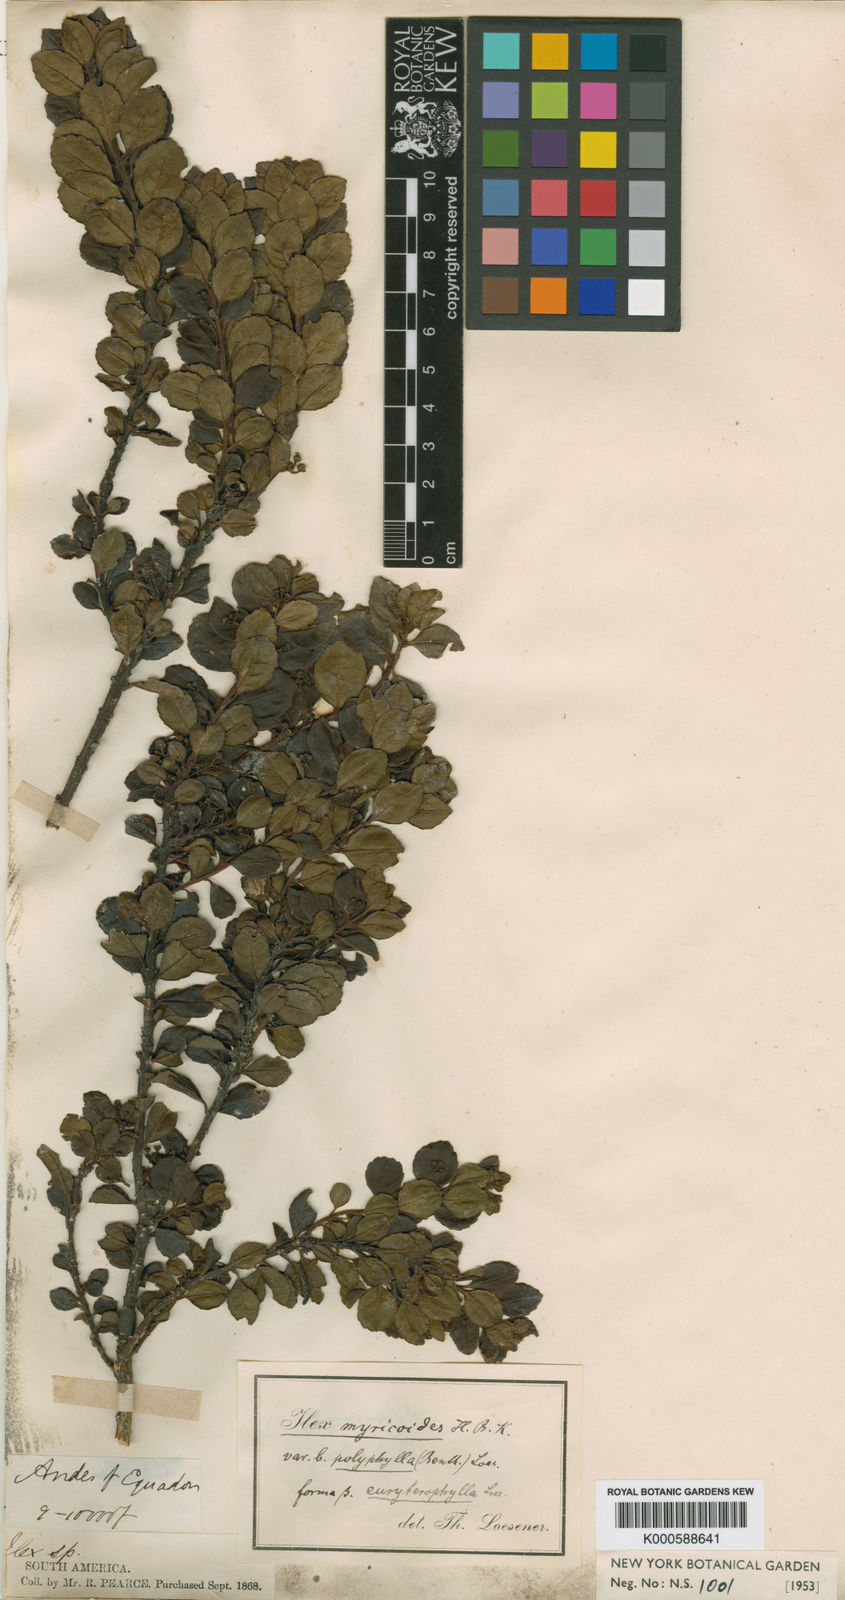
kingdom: Plantae
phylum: Tracheophyta
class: Magnoliopsida
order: Aquifoliales
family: Aquifoliaceae
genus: Ilex
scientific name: Ilex myricoides
